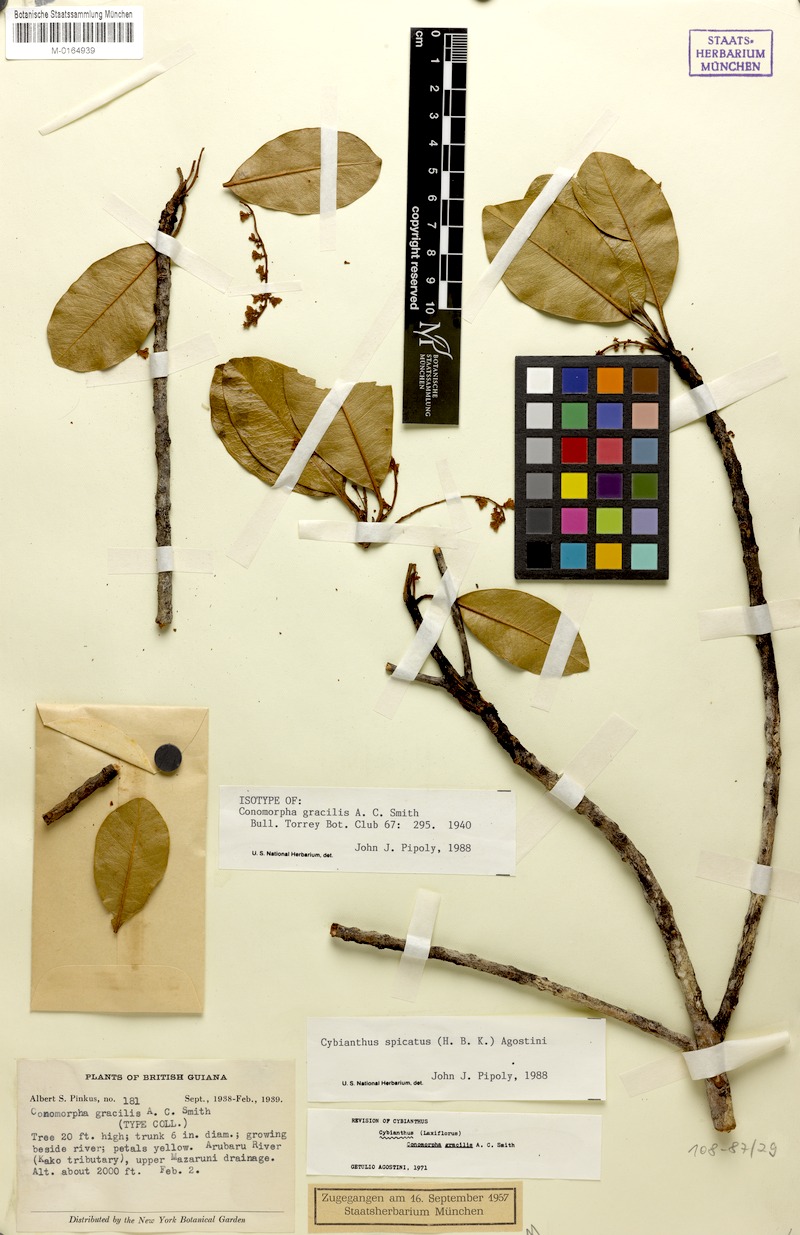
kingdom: Plantae
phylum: Tracheophyta
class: Magnoliopsida
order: Ericales
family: Primulaceae
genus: Cybianthus
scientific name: Cybianthus spicatus
